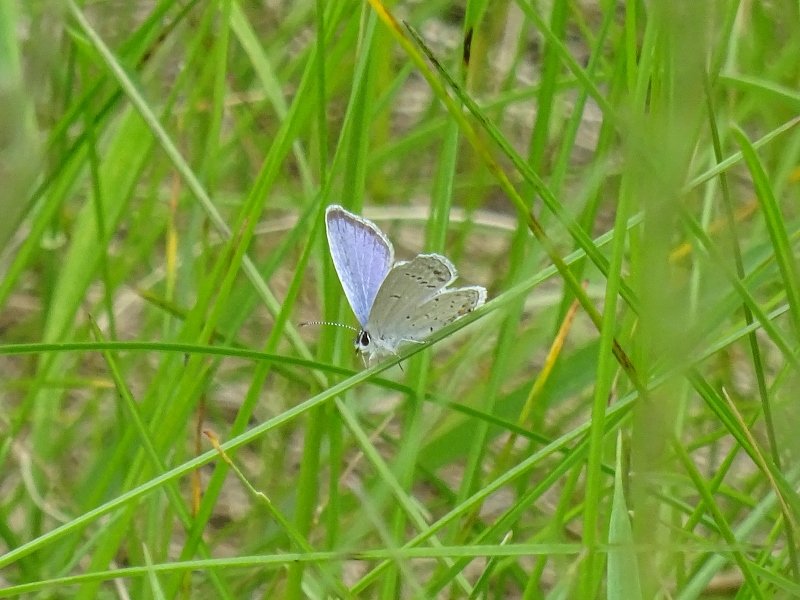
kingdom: Animalia
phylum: Arthropoda
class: Insecta
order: Lepidoptera
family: Lycaenidae
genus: Elkalyce
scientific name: Elkalyce comyntas
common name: Eastern Tailed-Blue
